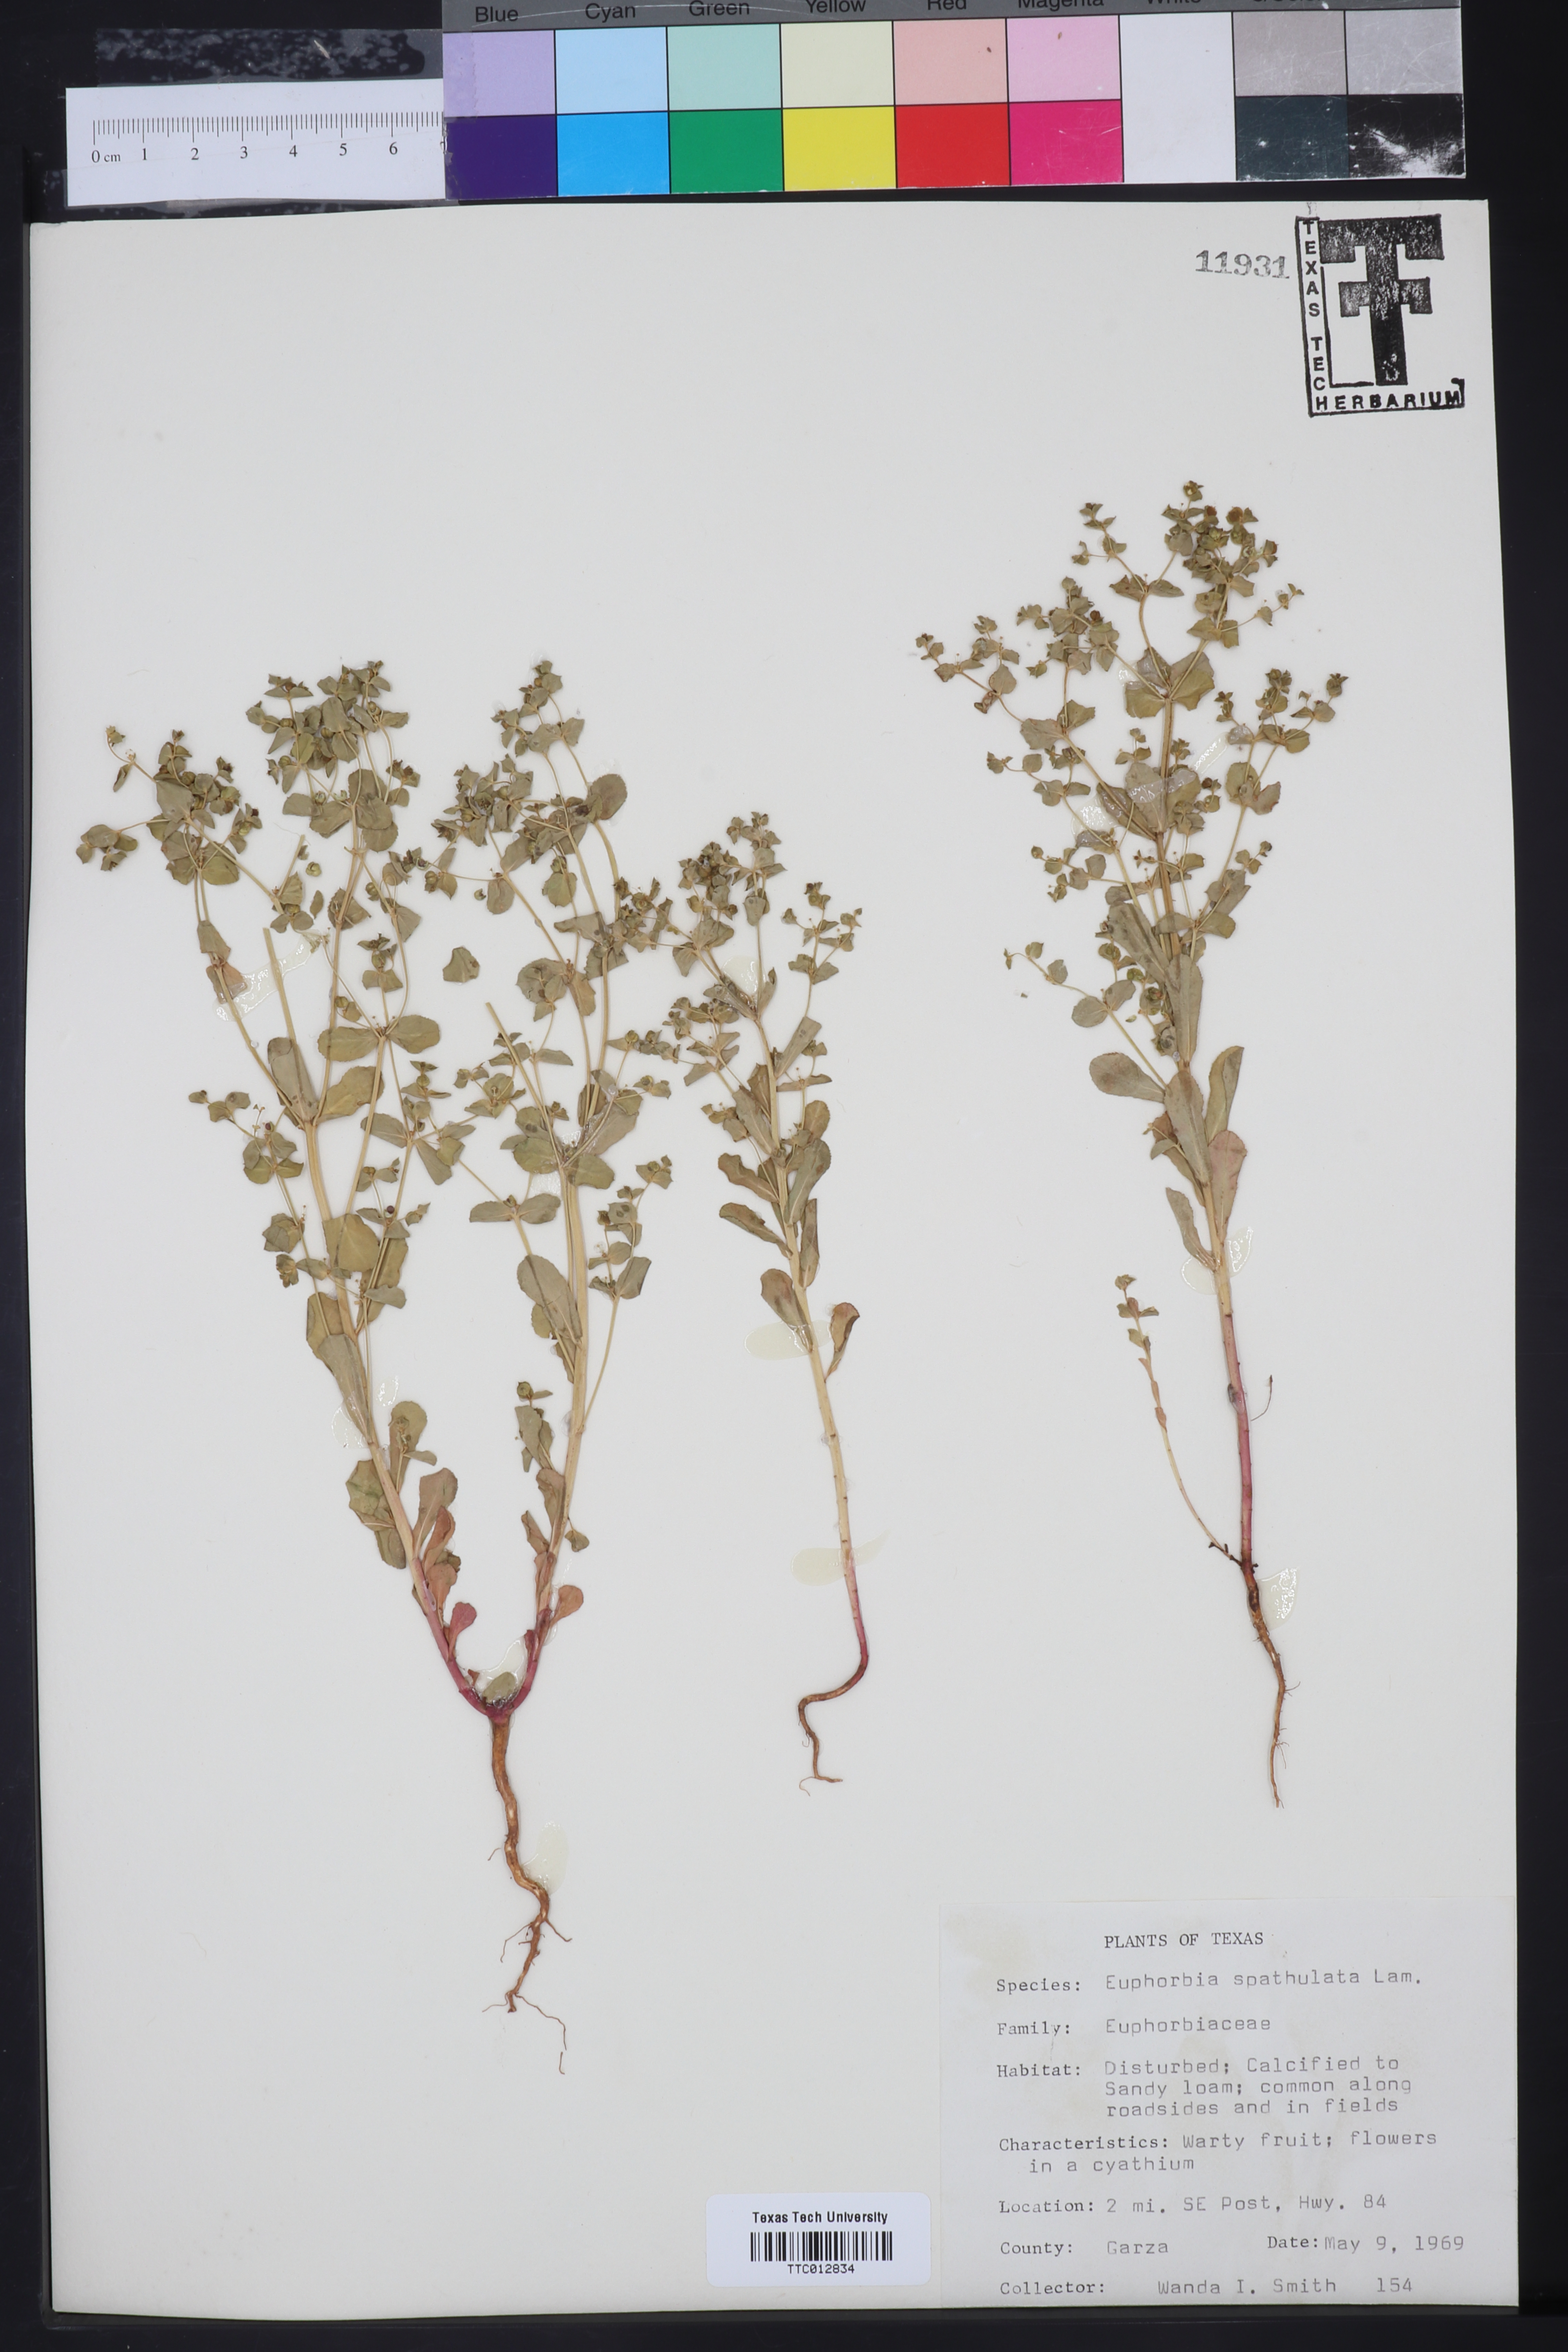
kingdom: Plantae
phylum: Tracheophyta
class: Magnoliopsida
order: Malpighiales
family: Euphorbiaceae
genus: Euphorbia
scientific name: Euphorbia spathulata
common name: Blunt spurge
